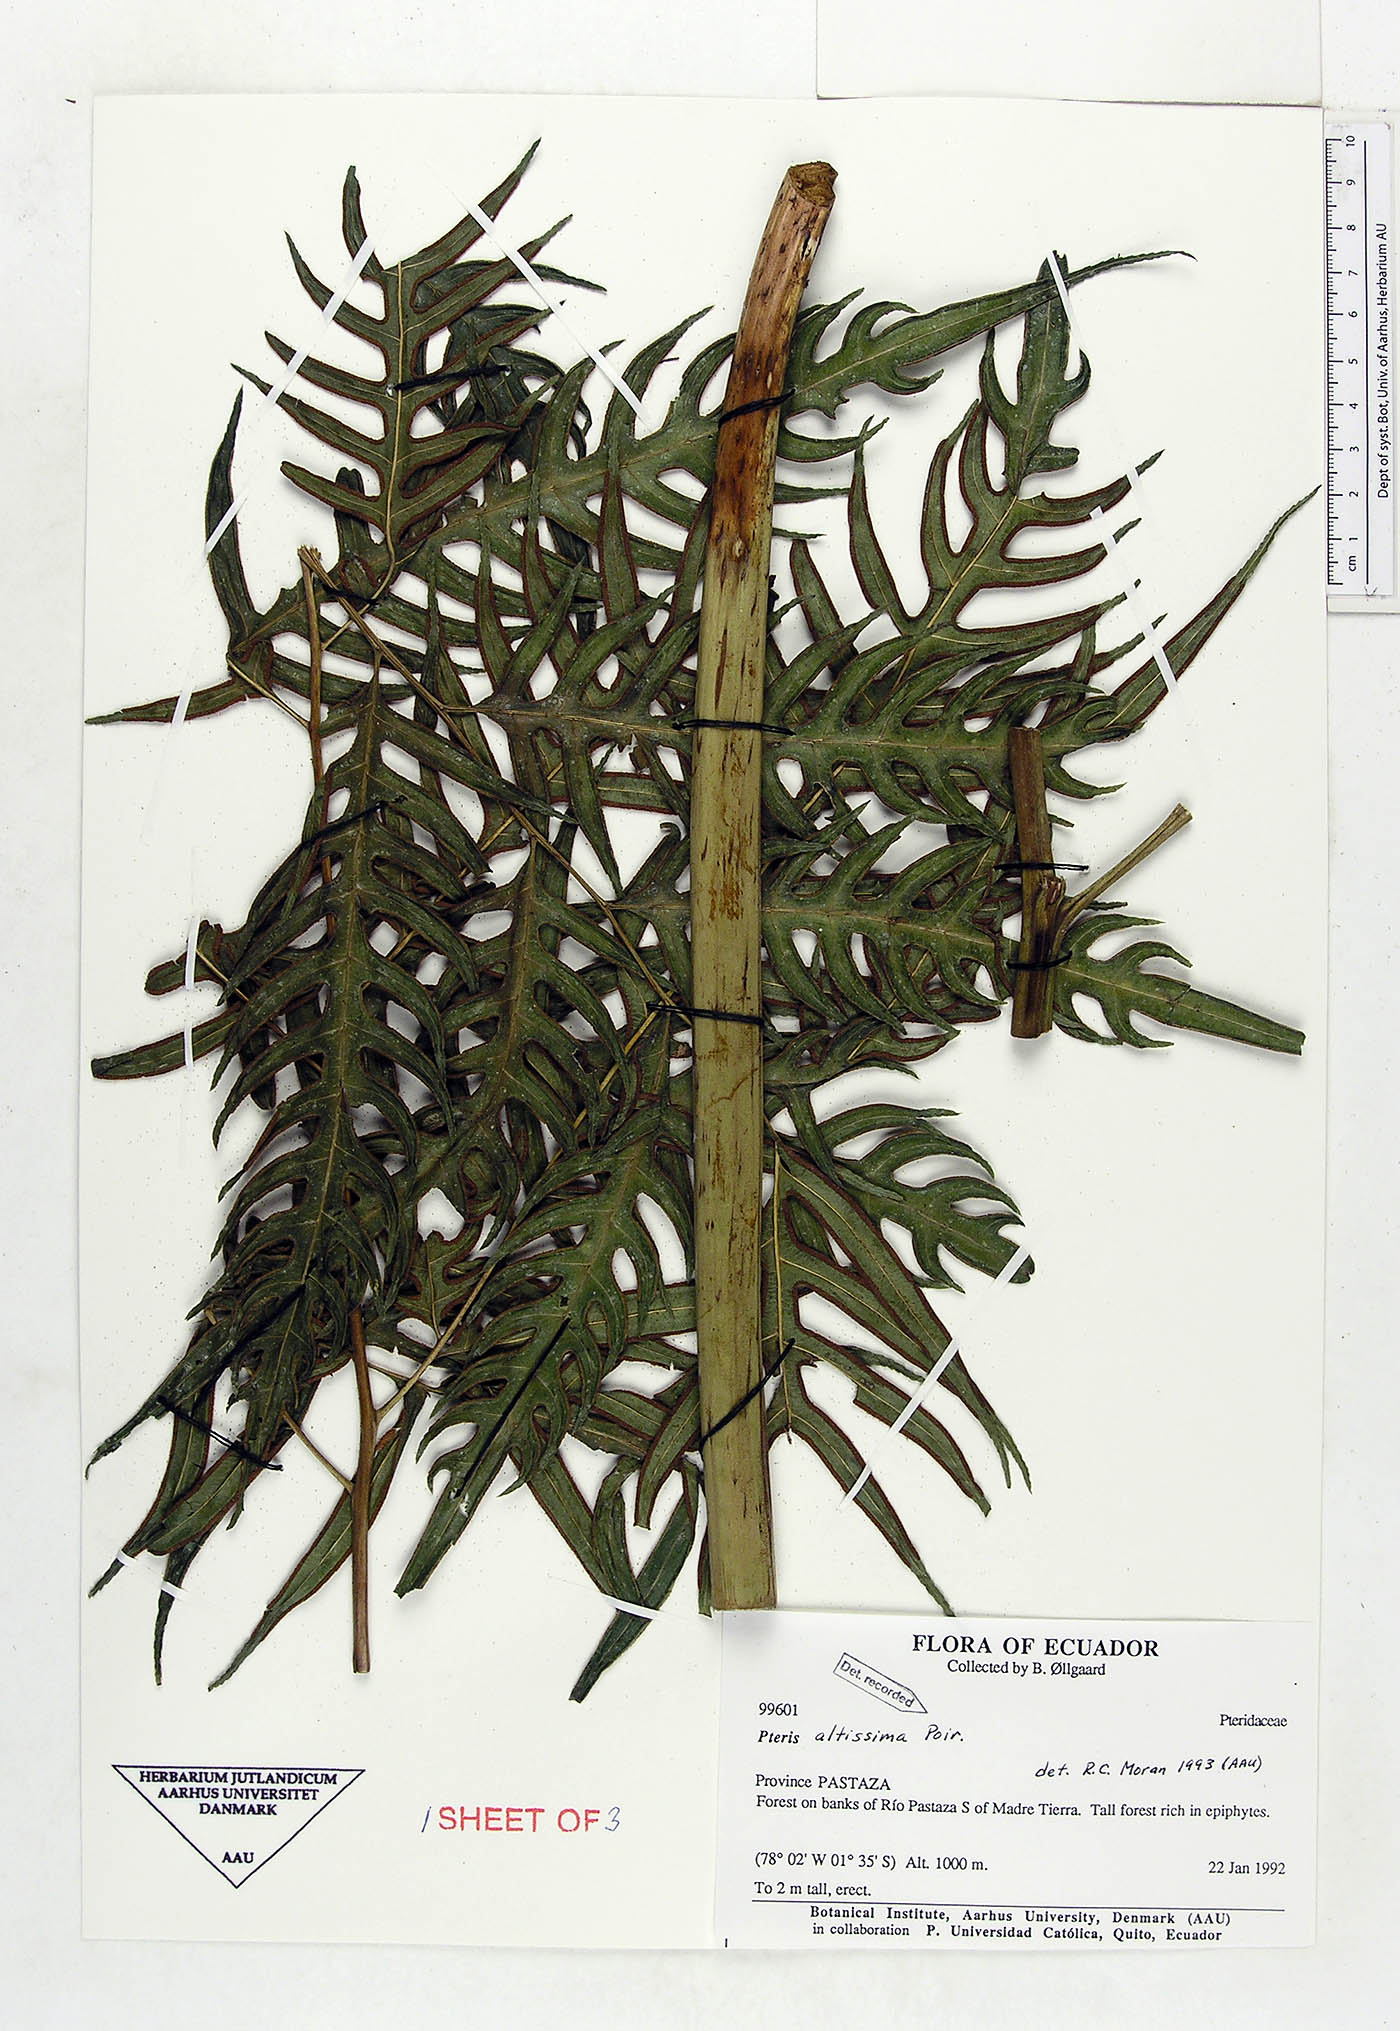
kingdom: Plantae
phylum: Tracheophyta
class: Polypodiopsida
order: Polypodiales
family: Pteridaceae
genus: Pteris
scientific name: Pteris altissima
